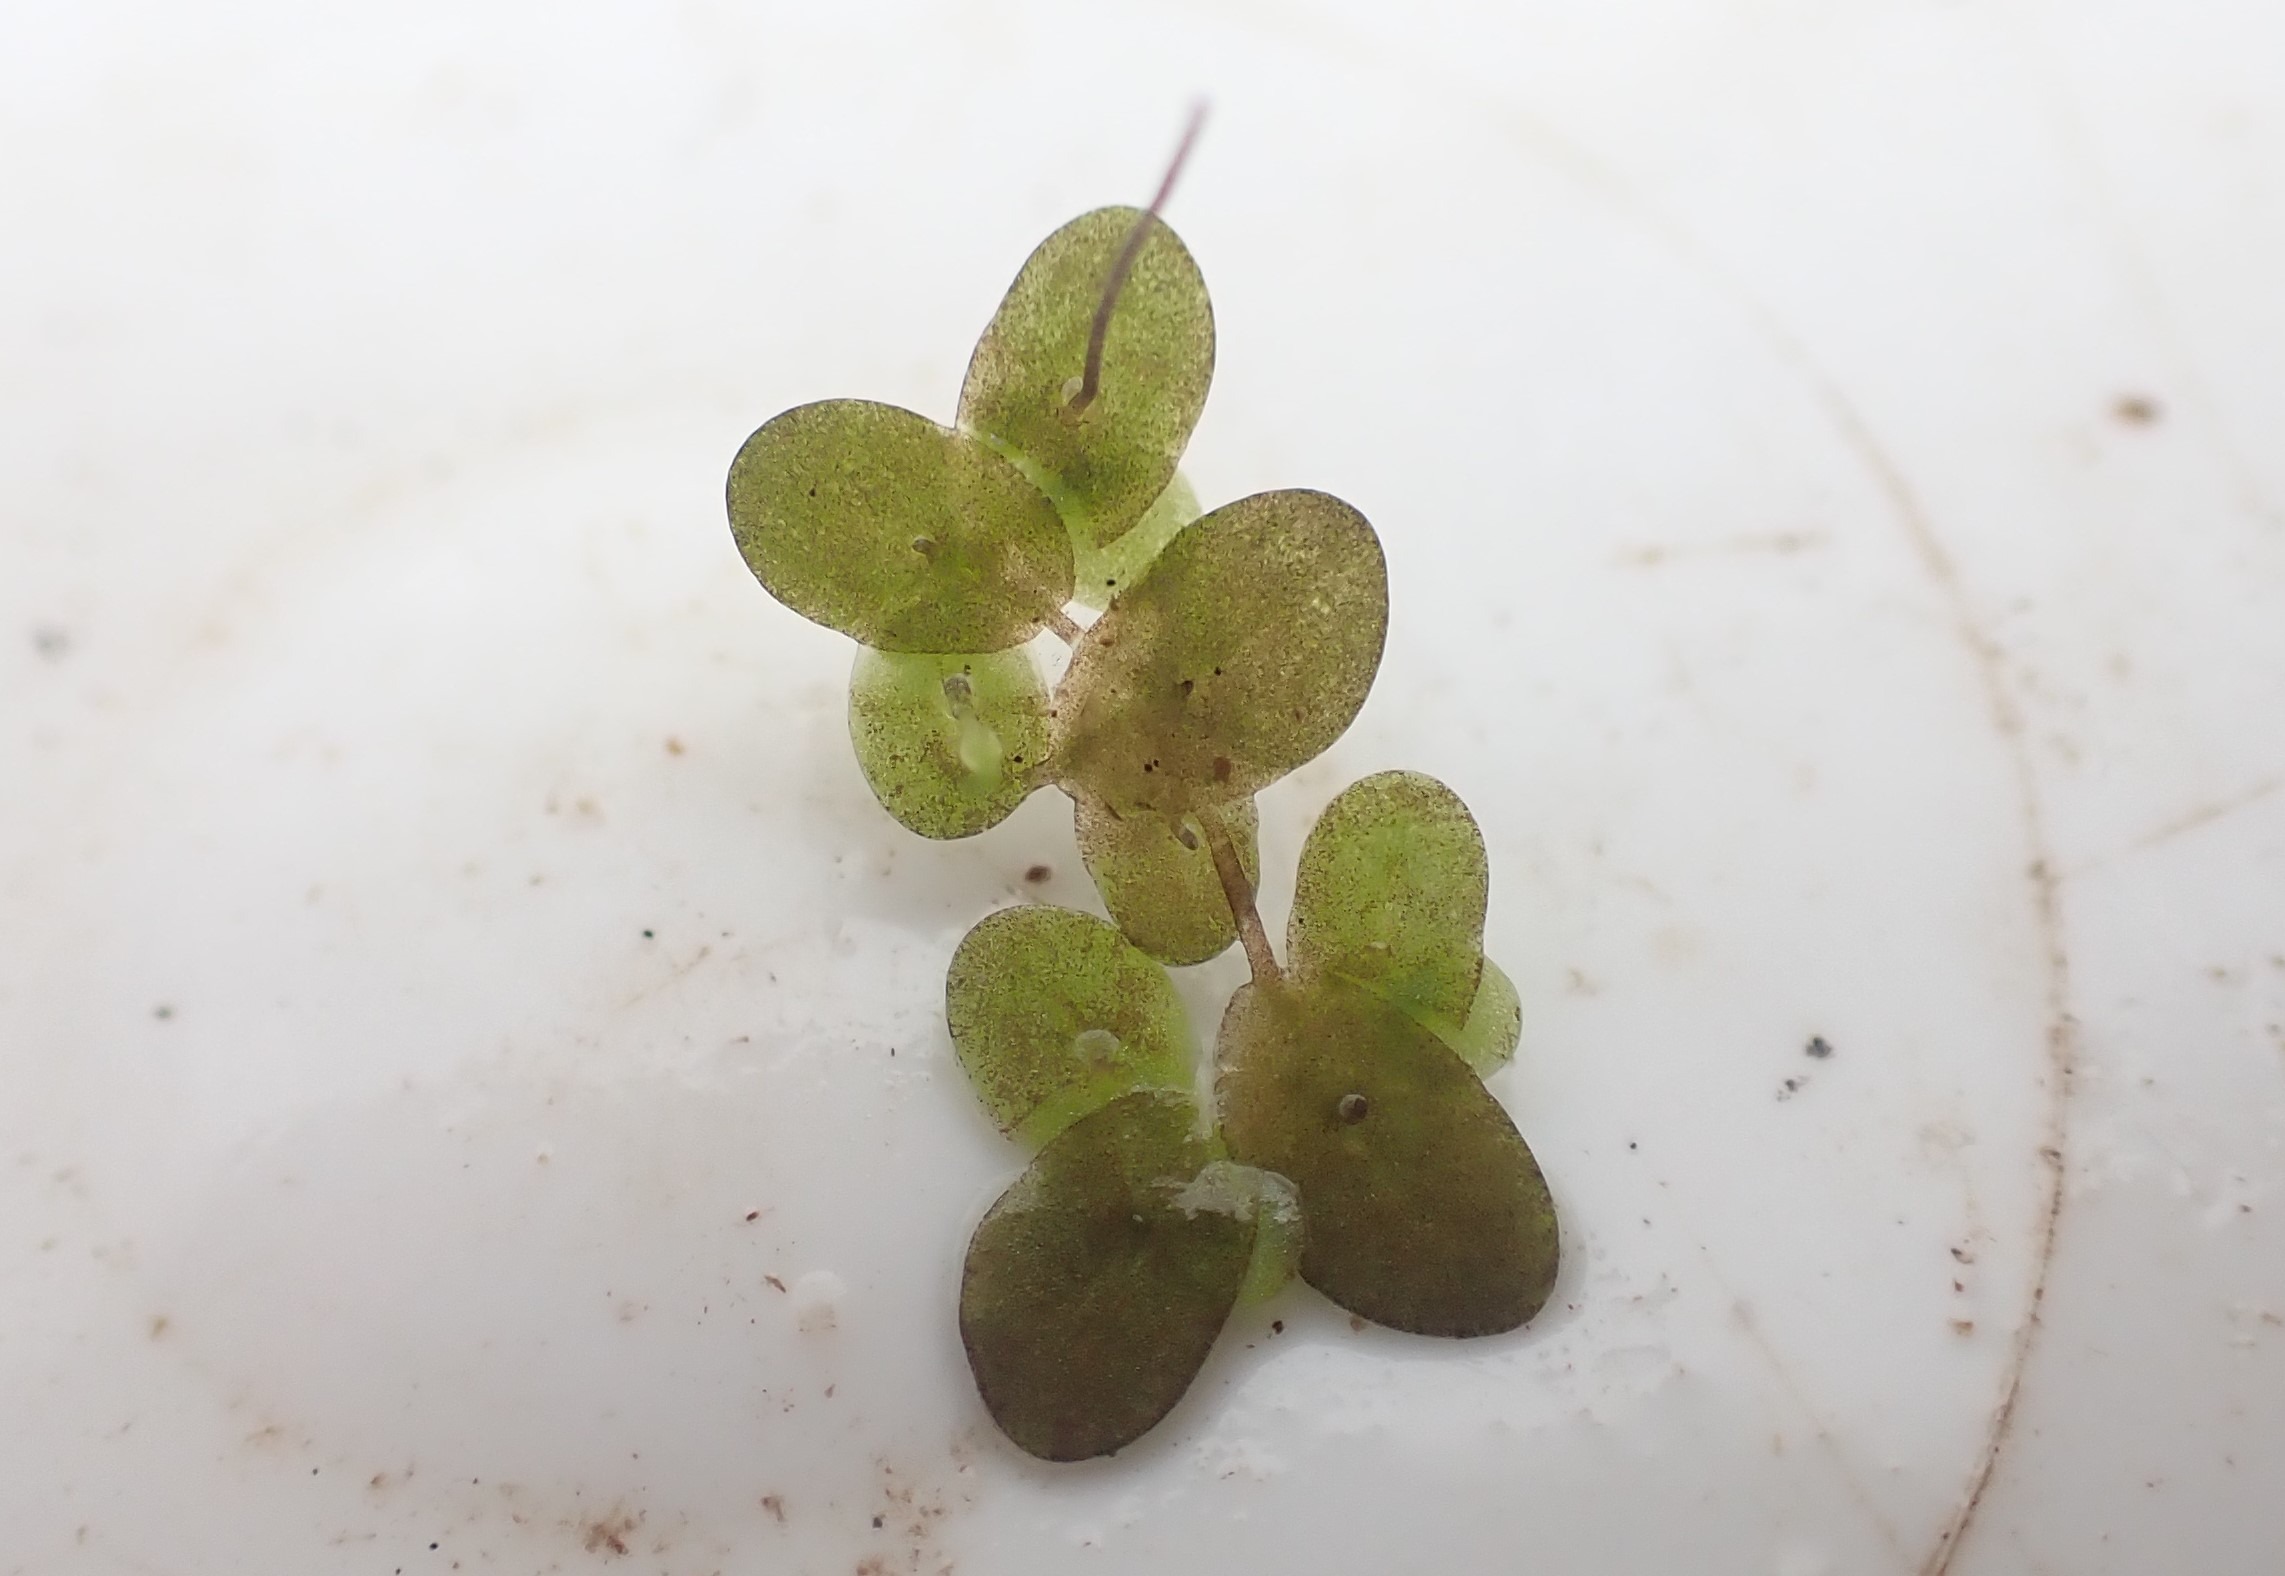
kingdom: Plantae
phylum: Tracheophyta
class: Liliopsida
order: Alismatales
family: Araceae
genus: Lemna
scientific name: Lemna minor
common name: Liden andemad
